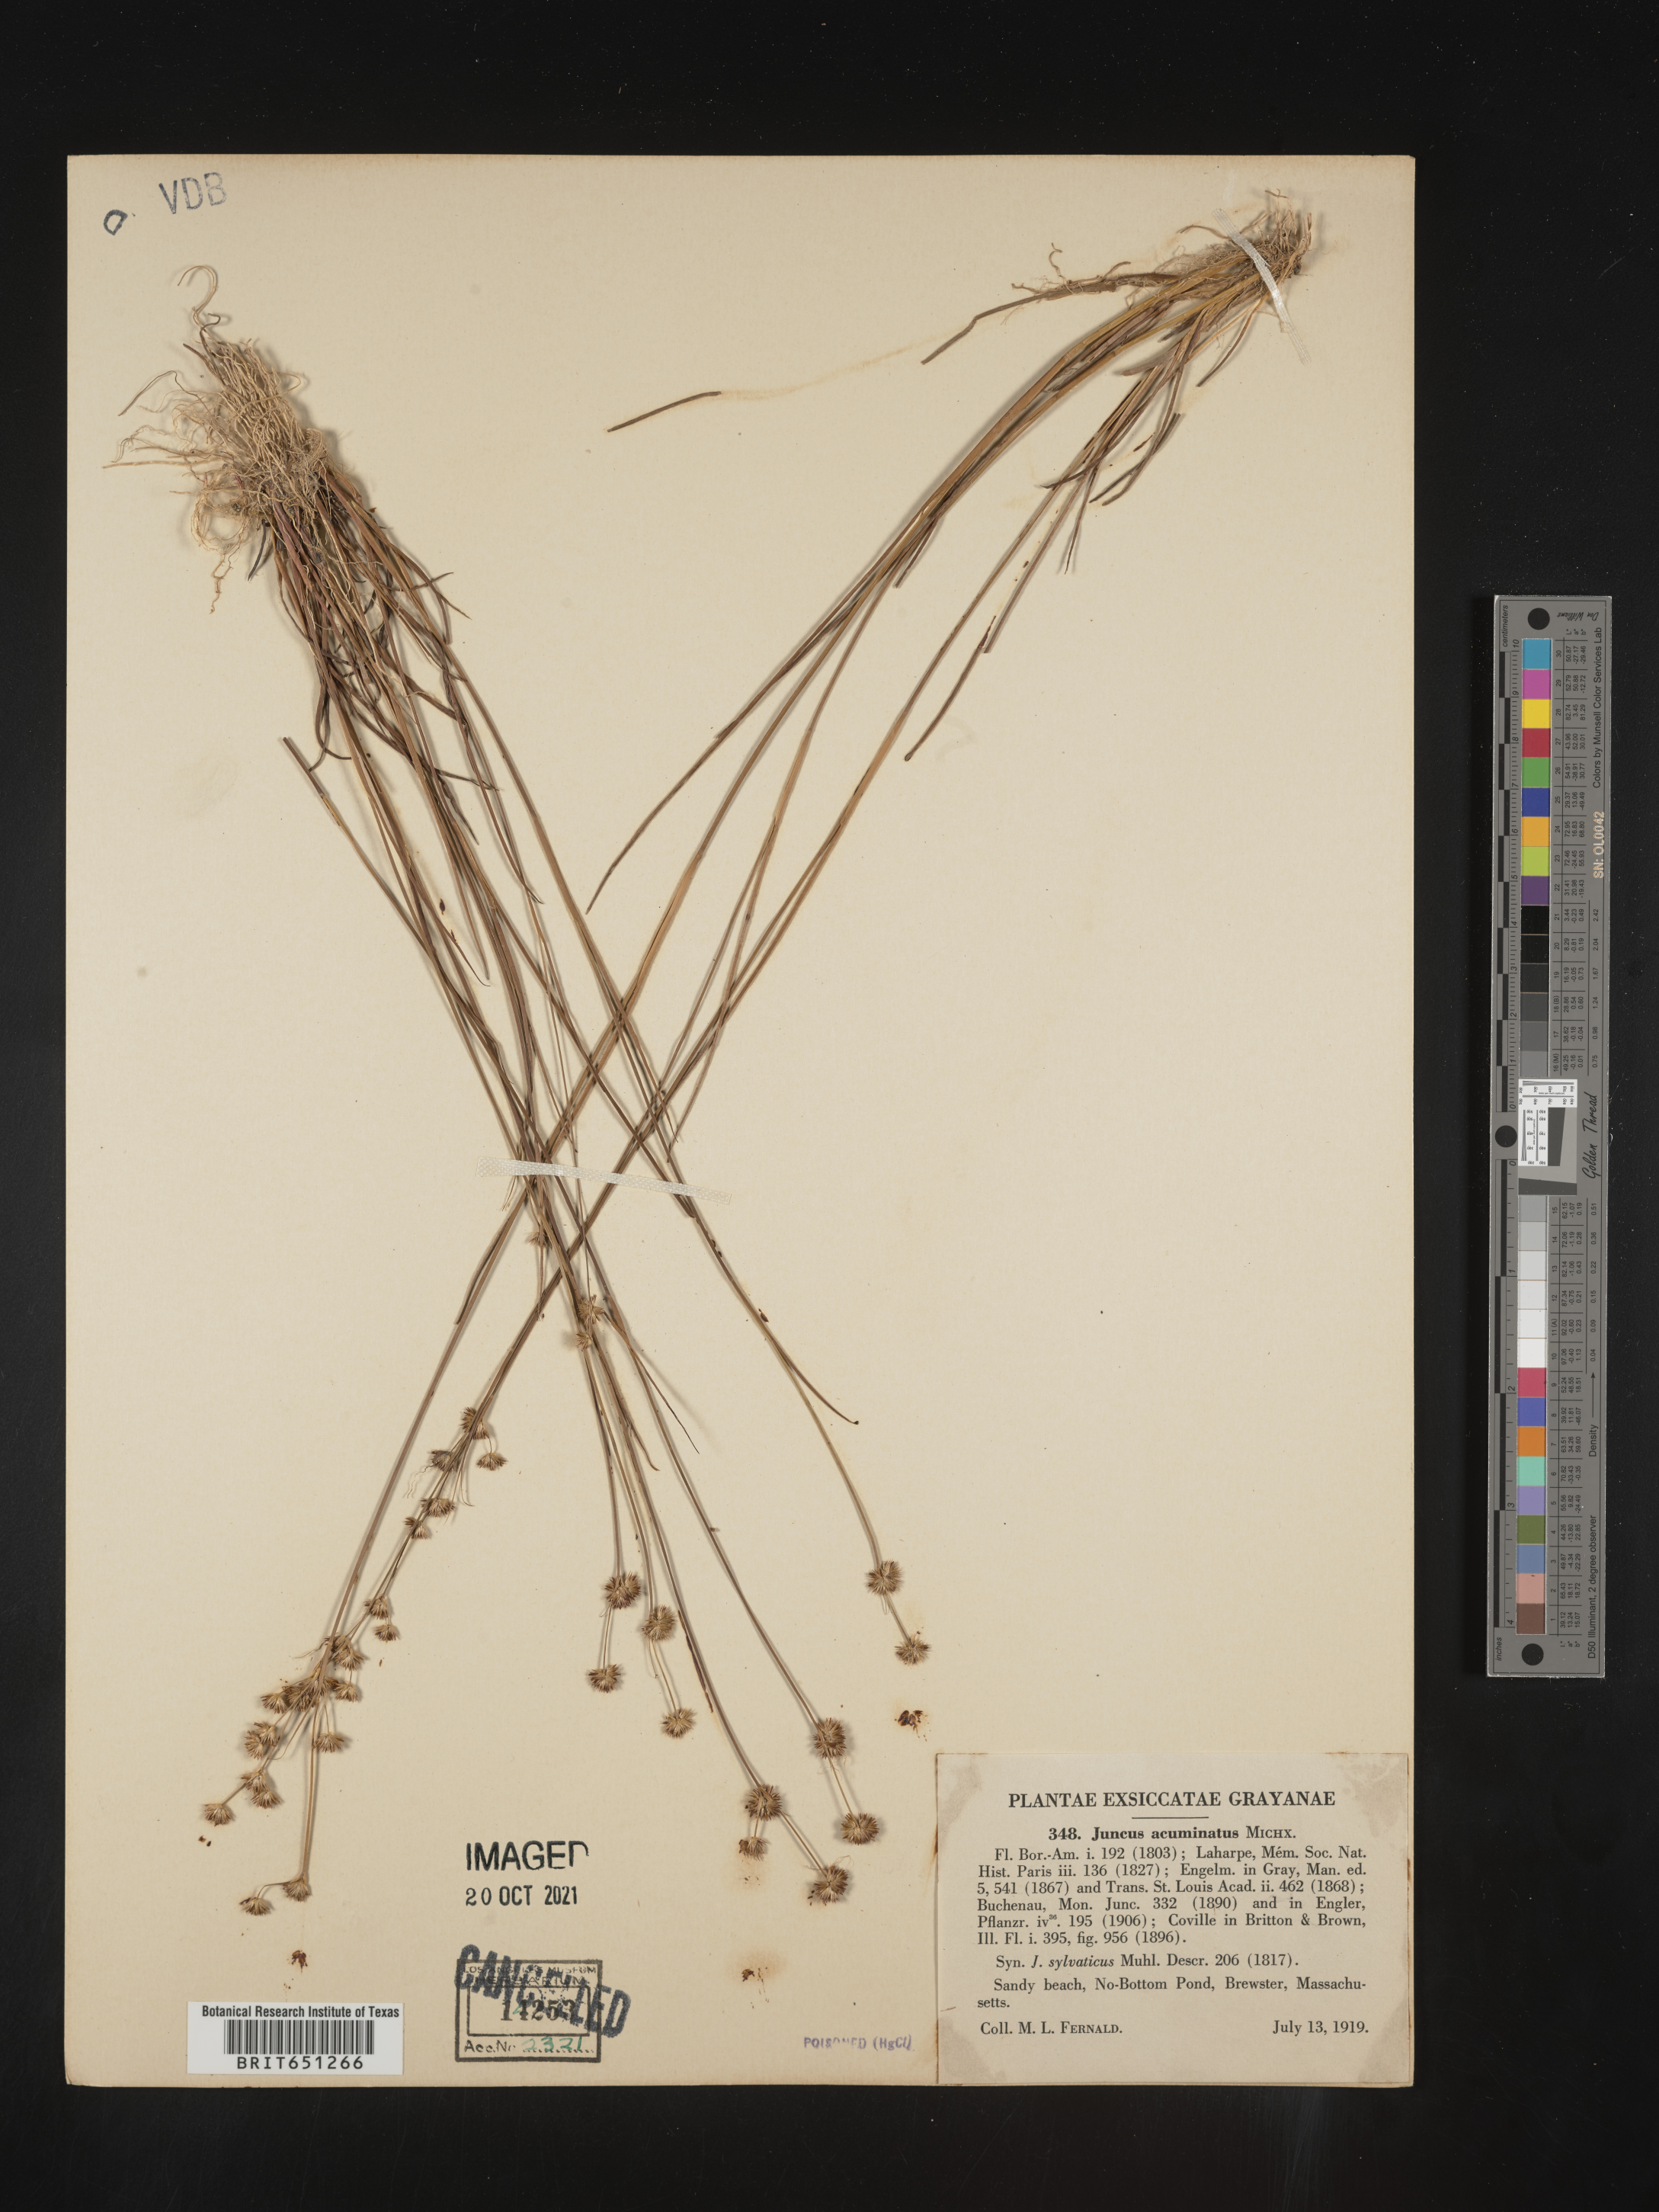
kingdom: Plantae
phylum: Tracheophyta
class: Liliopsida
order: Poales
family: Juncaceae
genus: Juncus
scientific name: Juncus acuminatus
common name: Knotty-leaved rush
